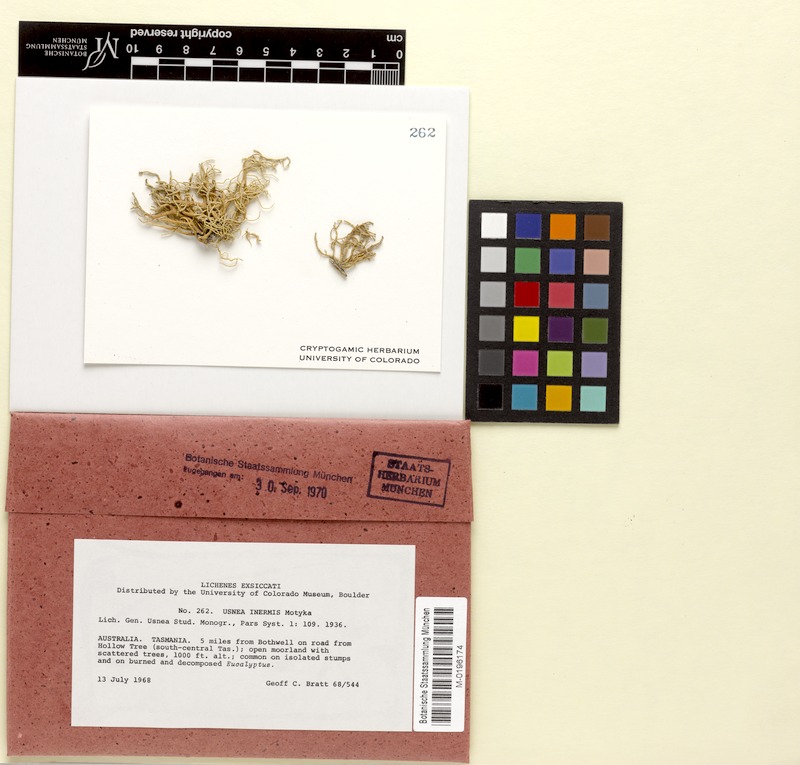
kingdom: Fungi
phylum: Ascomycota
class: Lecanoromycetes
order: Lecanorales
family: Parmeliaceae
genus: Usnea
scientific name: Usnea inermis
